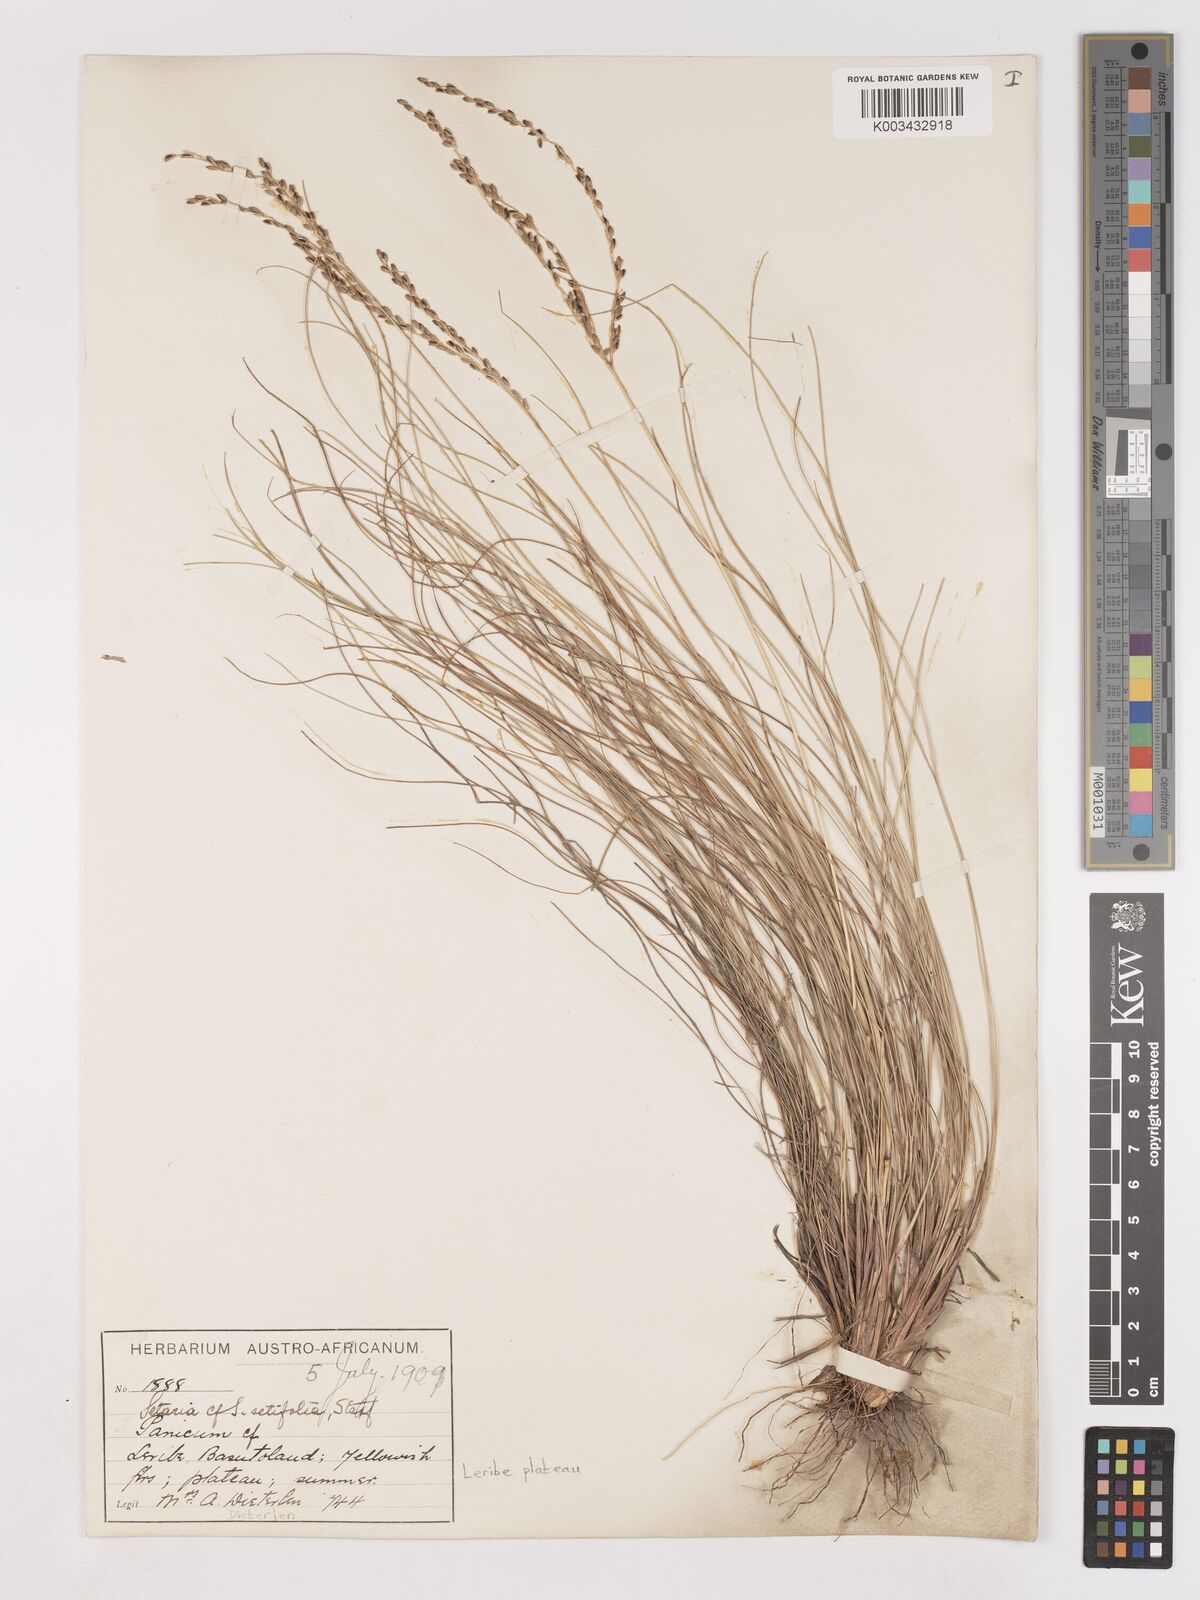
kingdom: Plantae
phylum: Tracheophyta
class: Liliopsida
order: Poales
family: Poaceae
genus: Digitaria
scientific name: Digitaria setifolia
